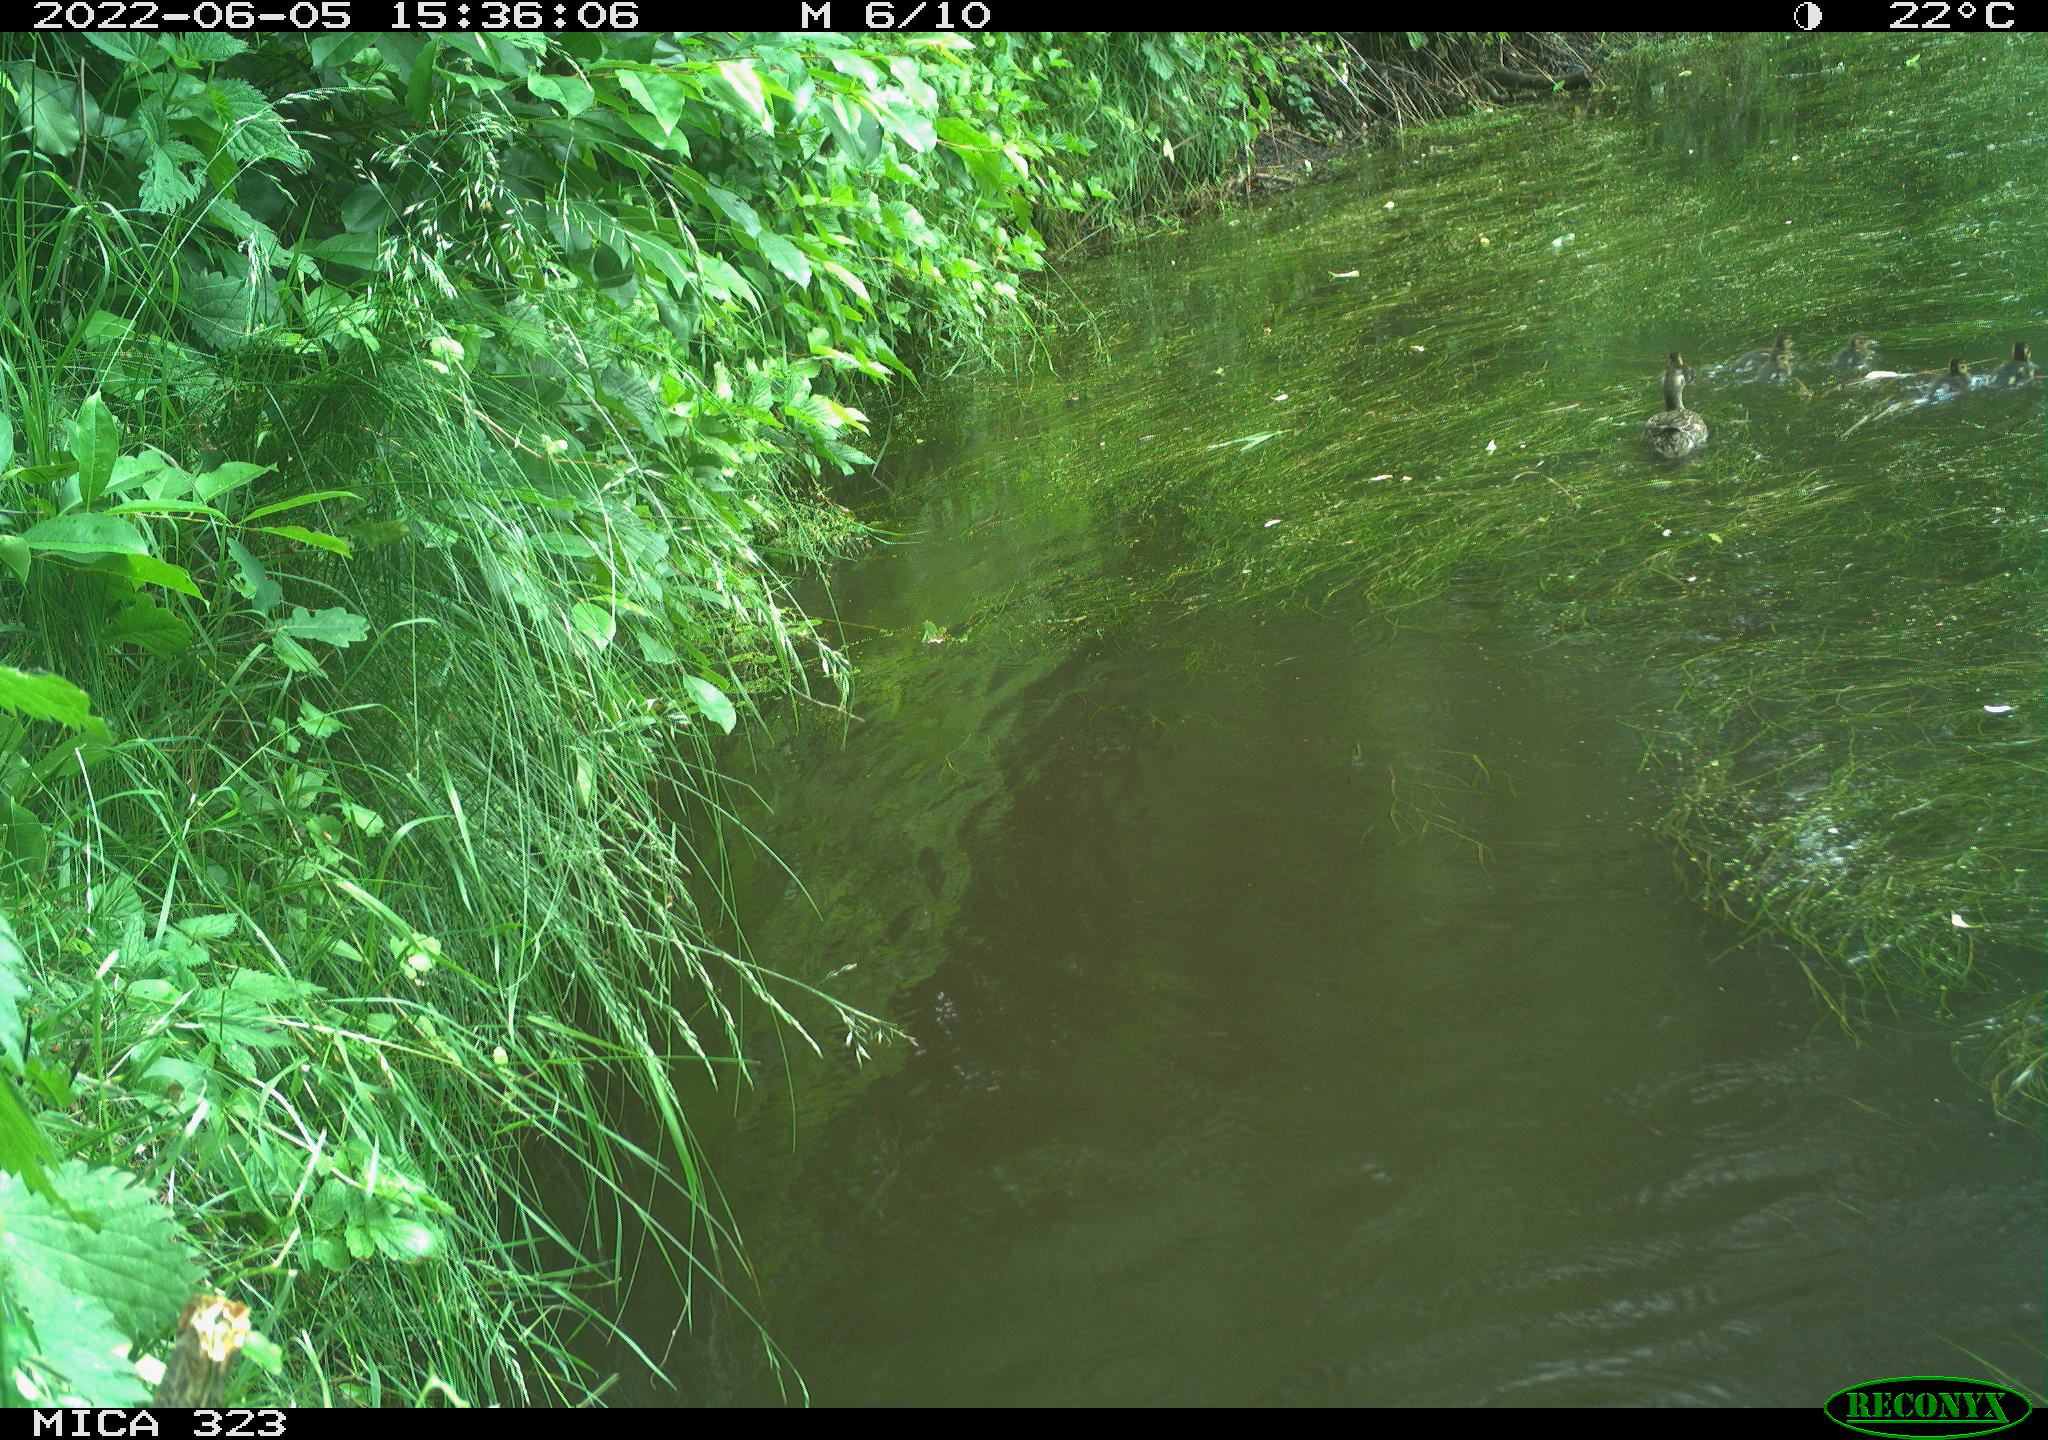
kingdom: Animalia
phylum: Chordata
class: Aves
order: Anseriformes
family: Anatidae
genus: Anas
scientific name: Anas platyrhynchos
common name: Mallard
